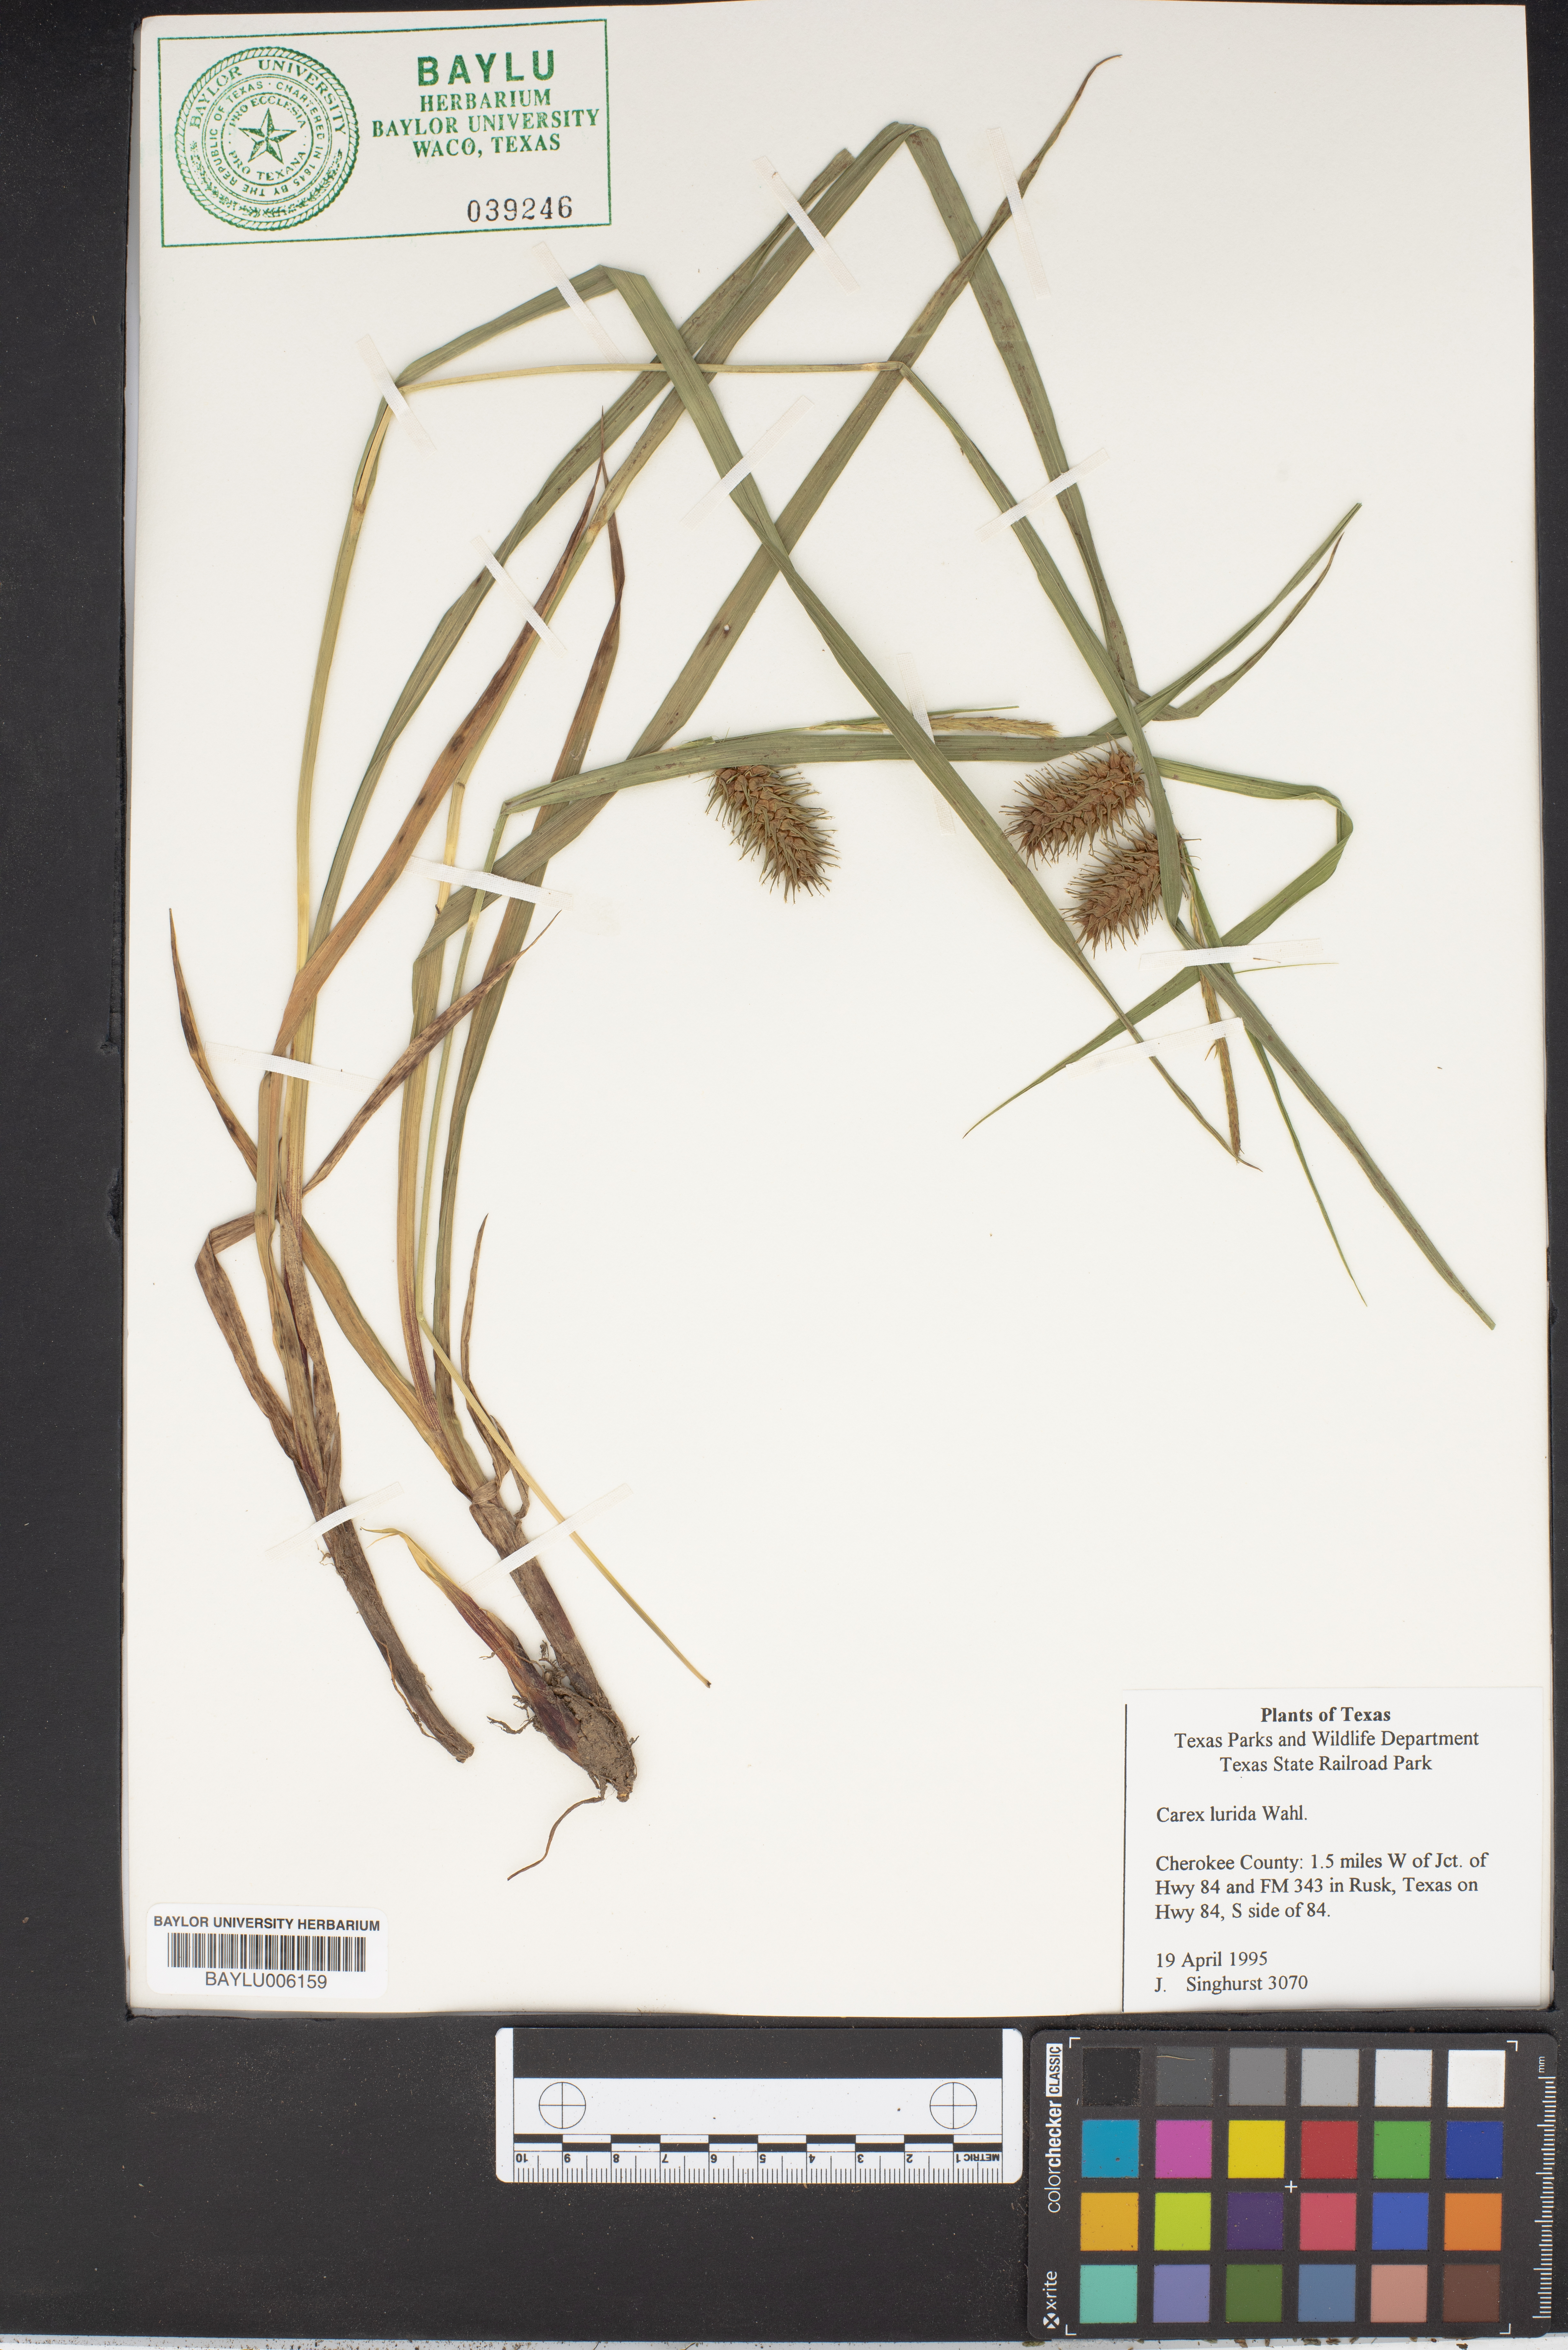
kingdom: Plantae
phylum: Tracheophyta
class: Liliopsida
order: Poales
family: Cyperaceae
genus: Carex
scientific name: Carex lurida
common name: Sallow sedge
